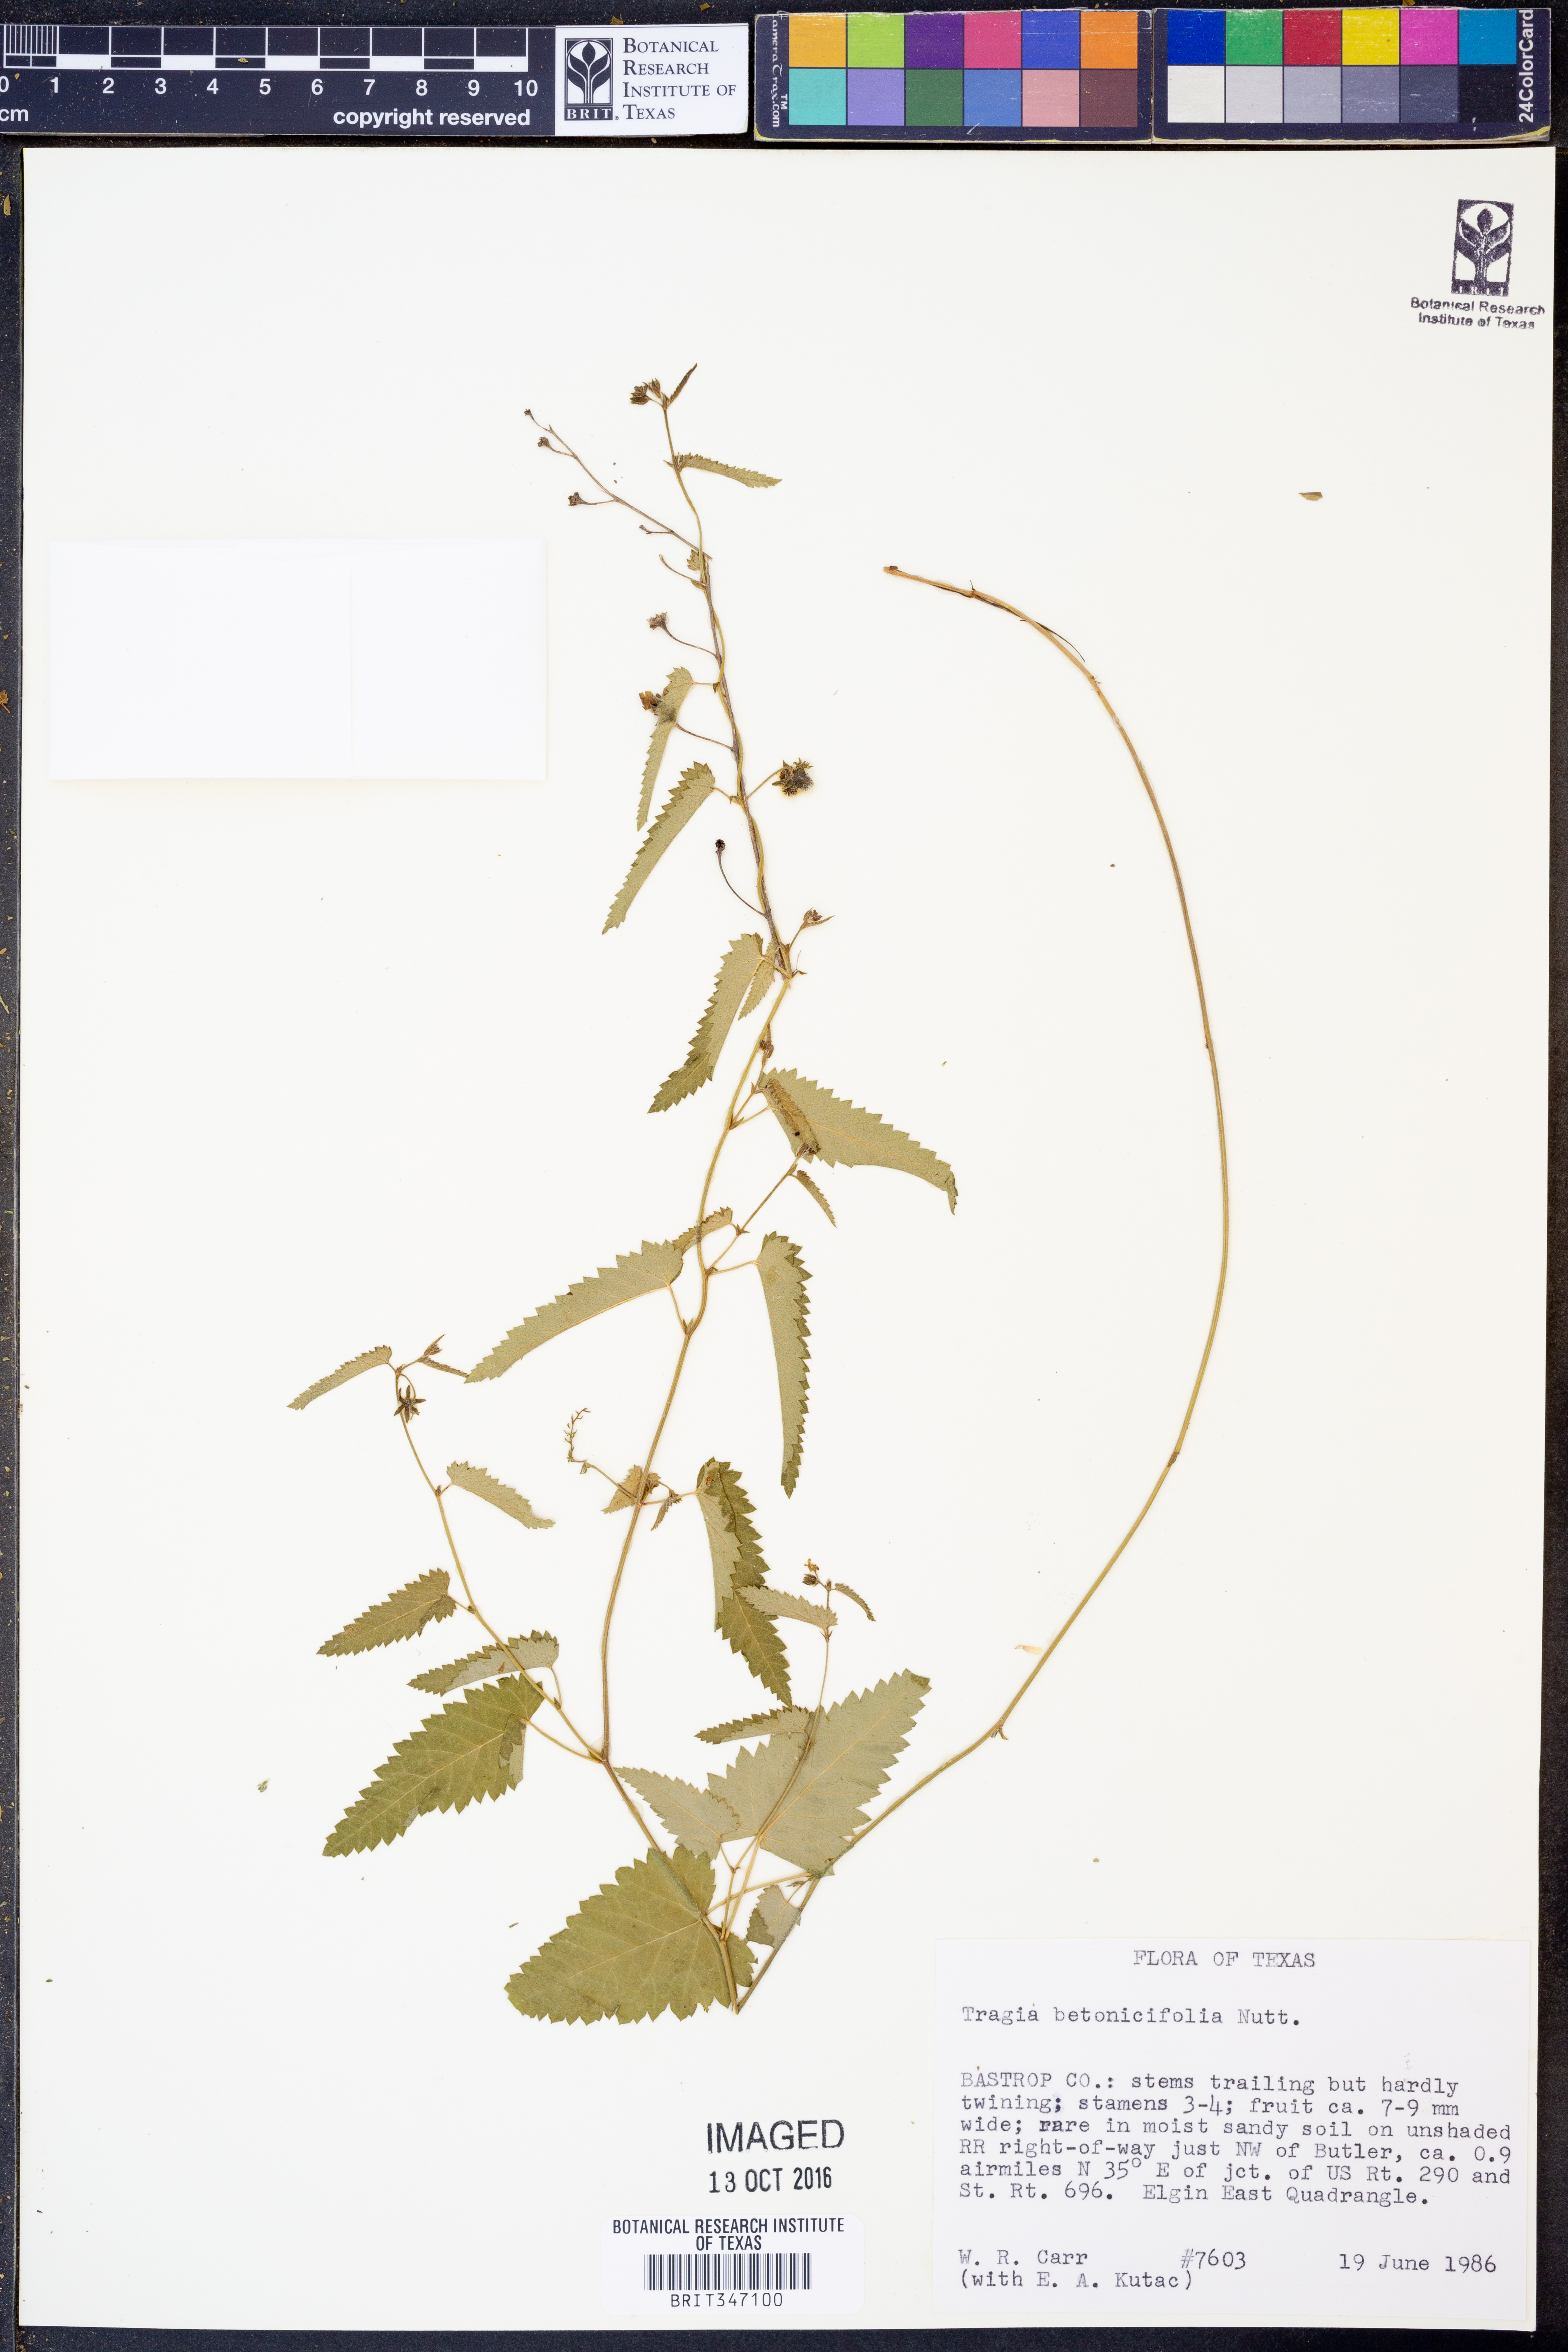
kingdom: Plantae
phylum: Tracheophyta
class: Magnoliopsida
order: Malpighiales
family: Euphorbiaceae
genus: Tragia
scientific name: Tragia betonicifolia
